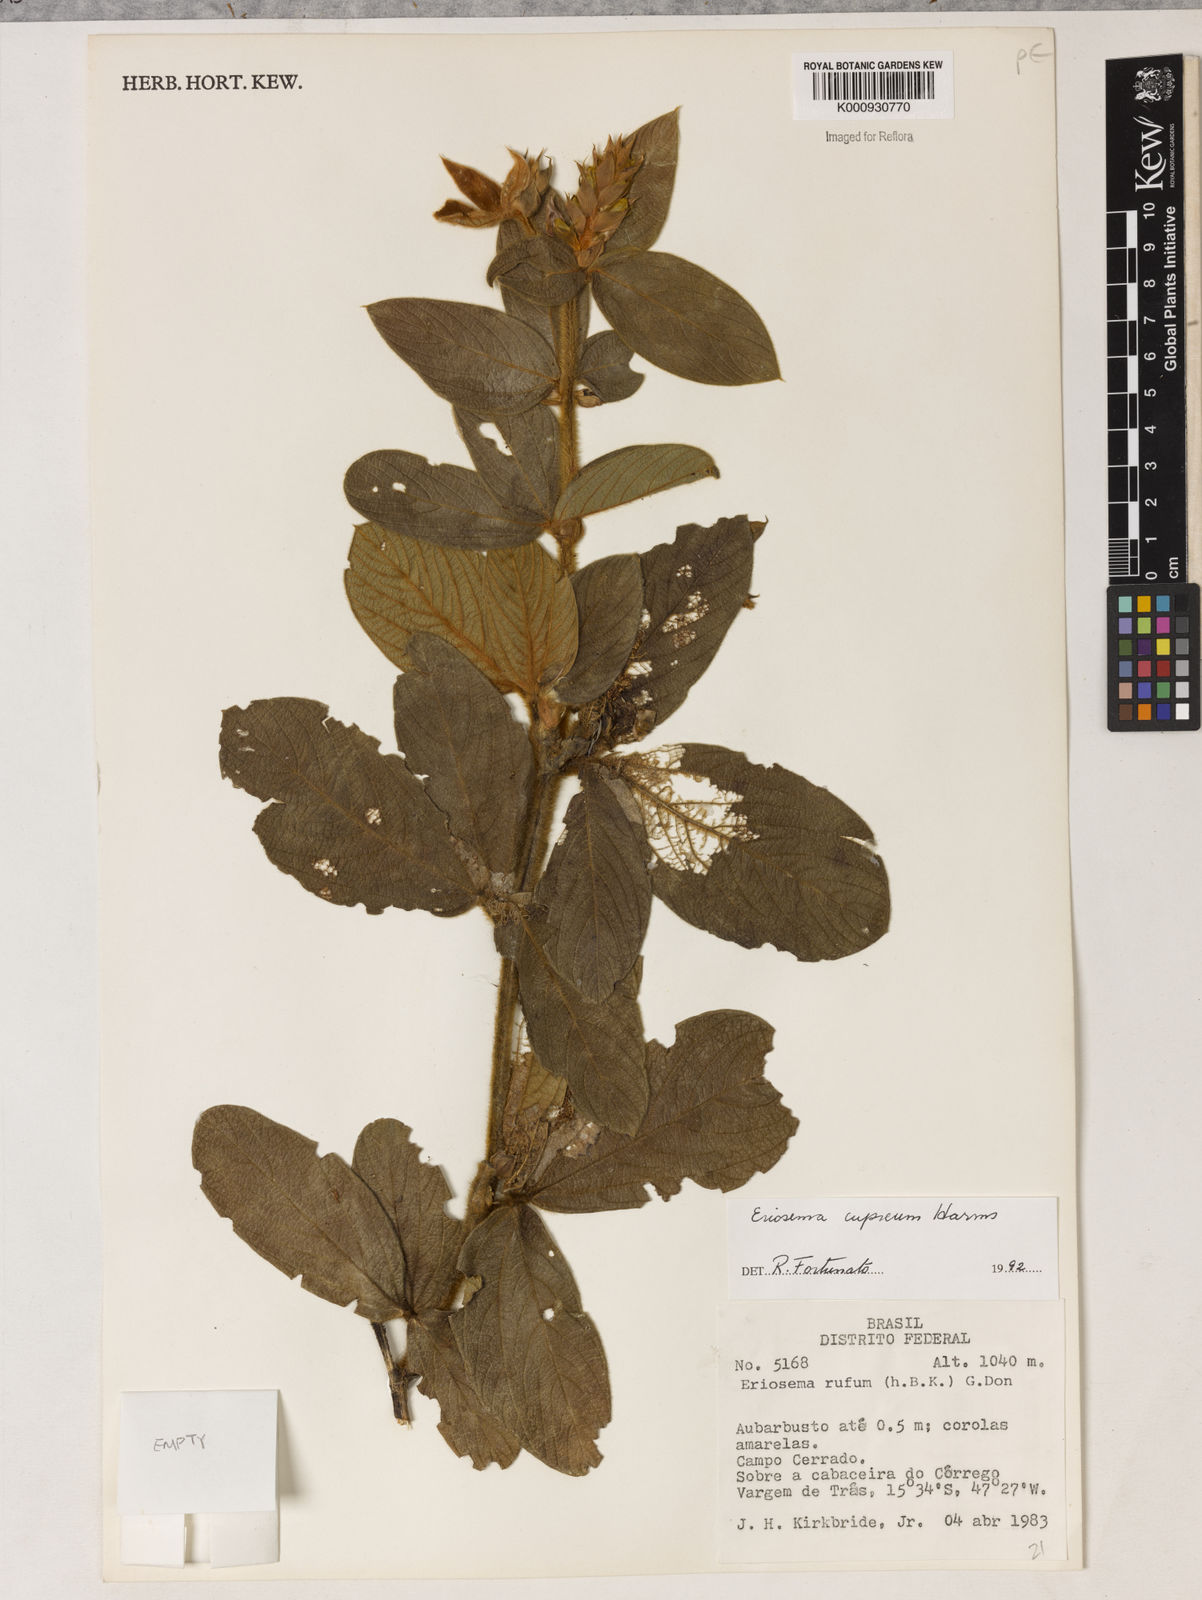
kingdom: Plantae
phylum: Tracheophyta
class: Magnoliopsida
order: Fabales
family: Fabaceae
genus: Eriosema
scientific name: Eriosema cupreum
